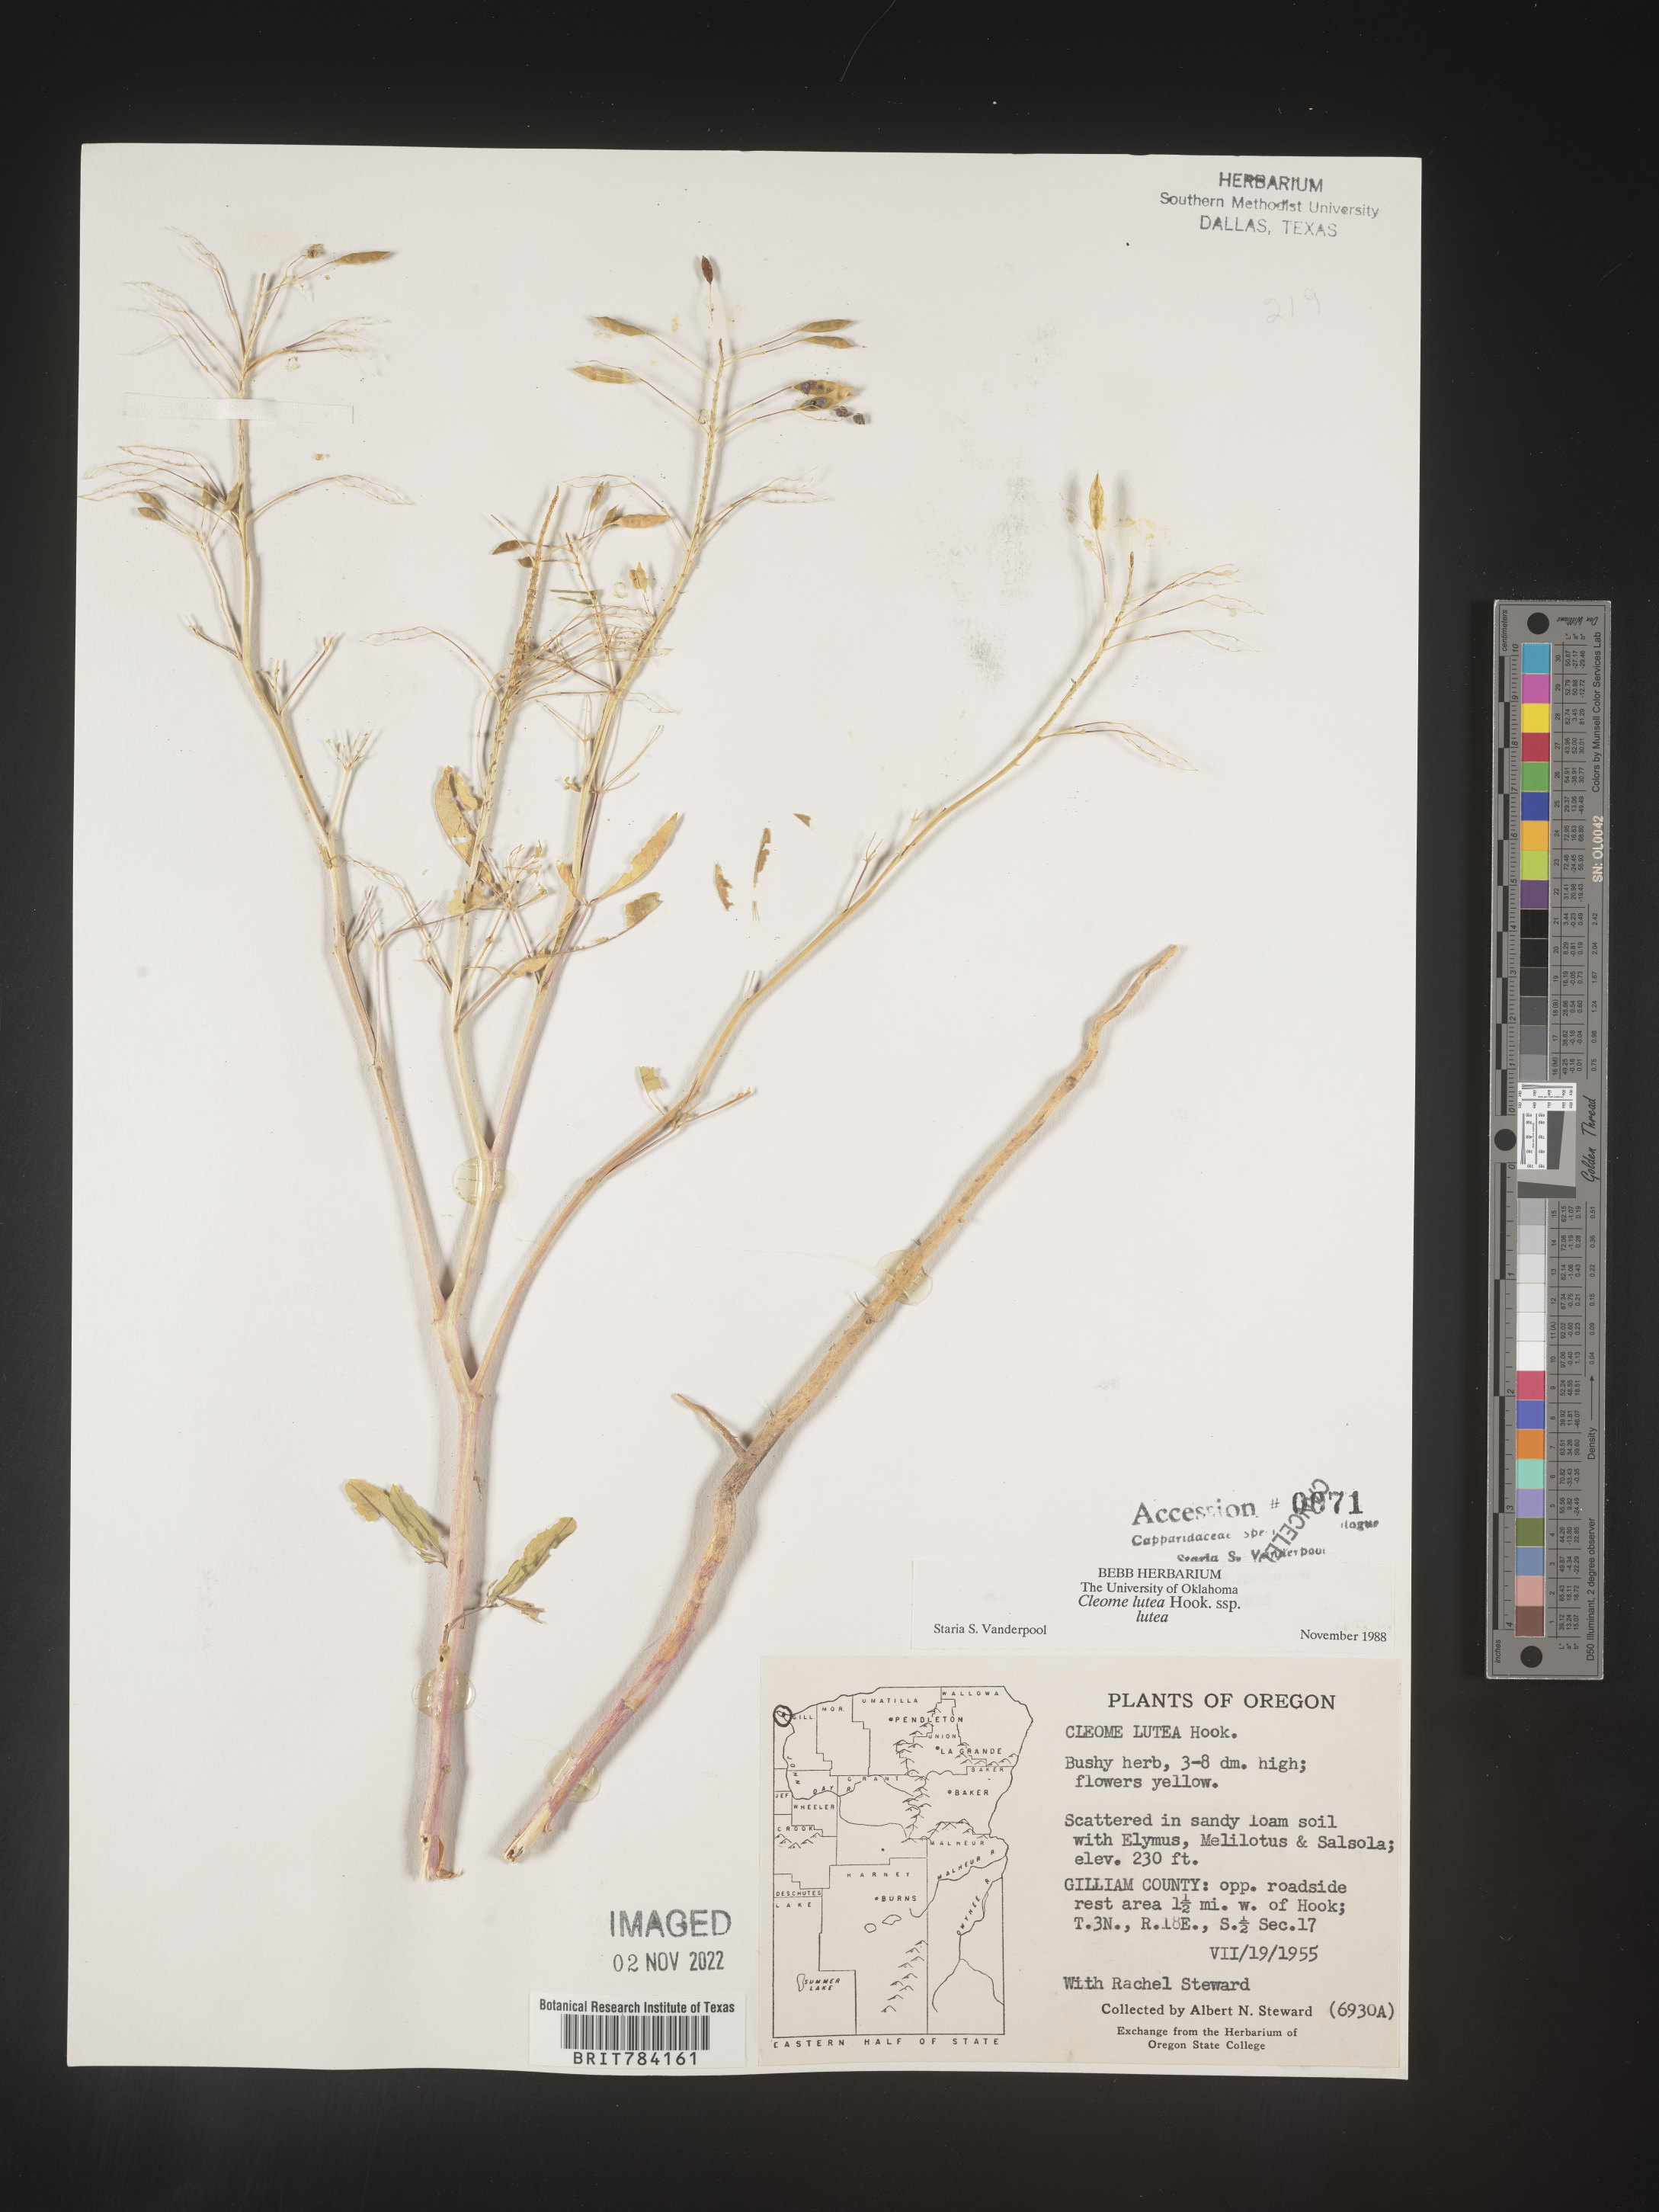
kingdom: Plantae
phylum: Tracheophyta
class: Magnoliopsida
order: Brassicales
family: Cleomaceae
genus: Cleomella
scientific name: Cleomella lutea
